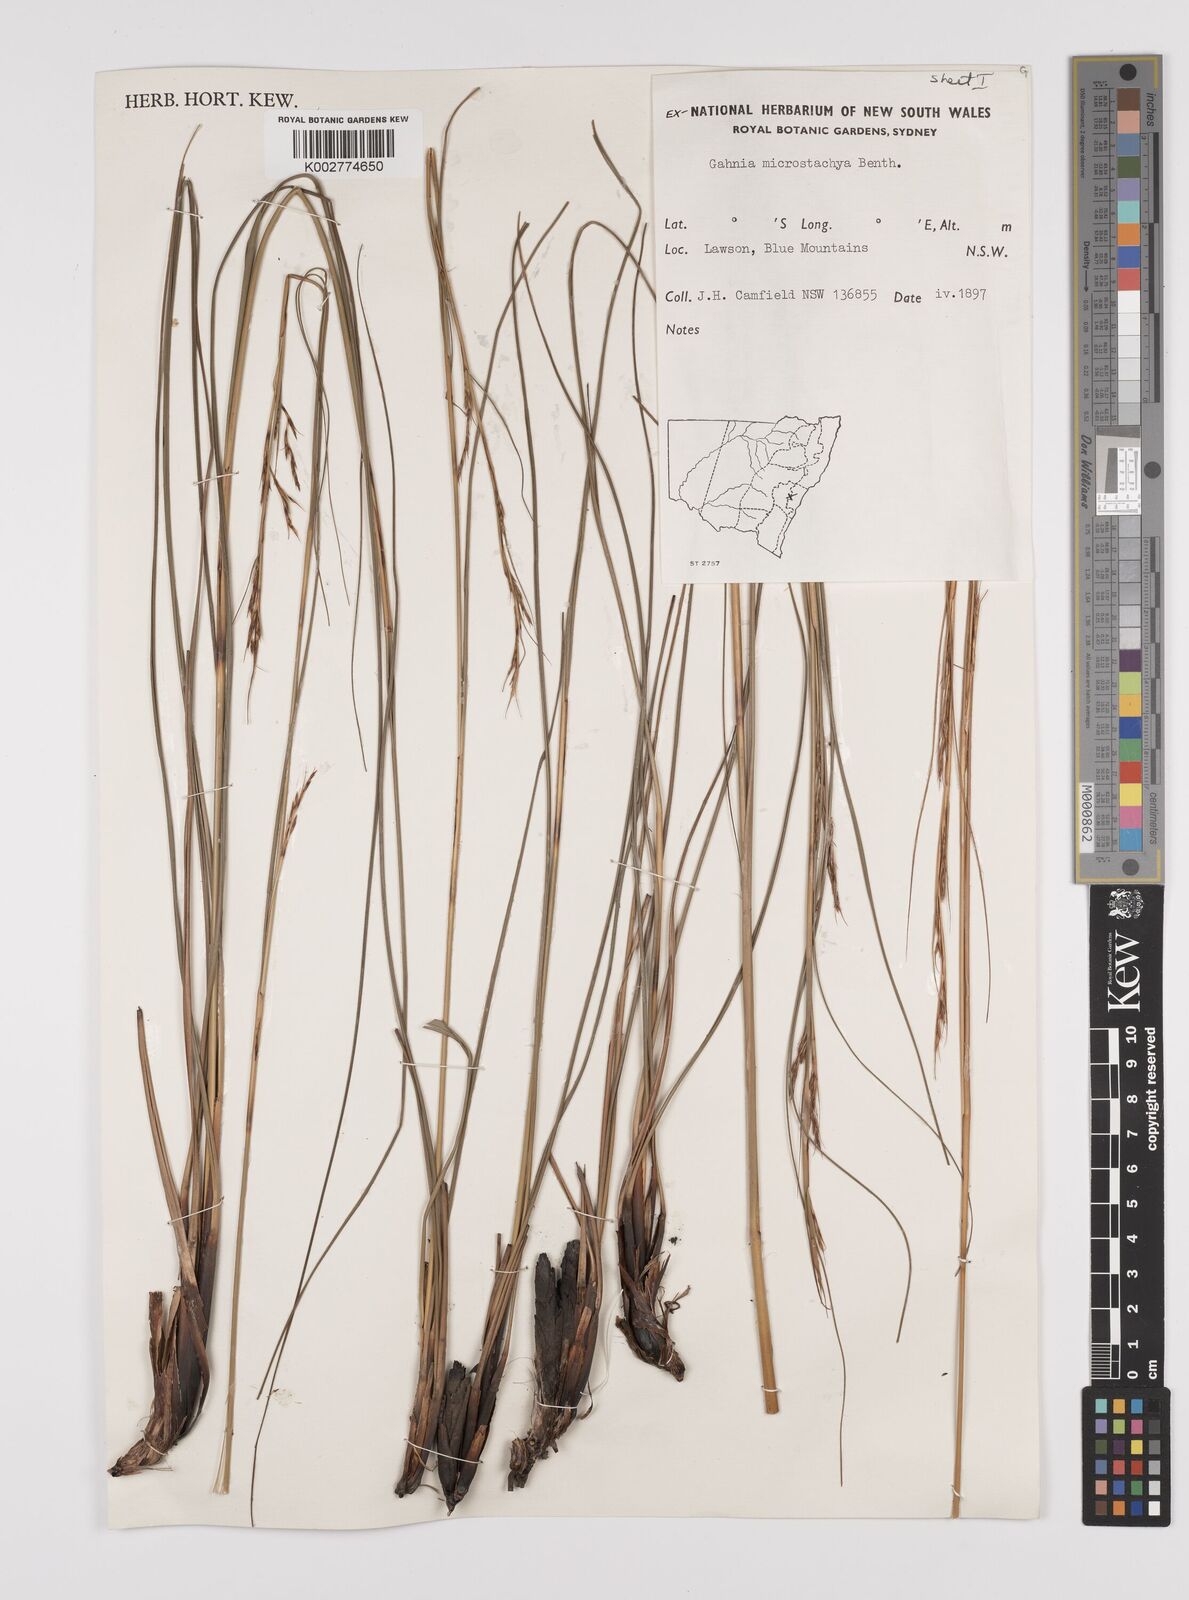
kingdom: Plantae
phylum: Tracheophyta
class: Liliopsida
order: Poales
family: Cyperaceae
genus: Gahnia
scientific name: Gahnia microstachya
